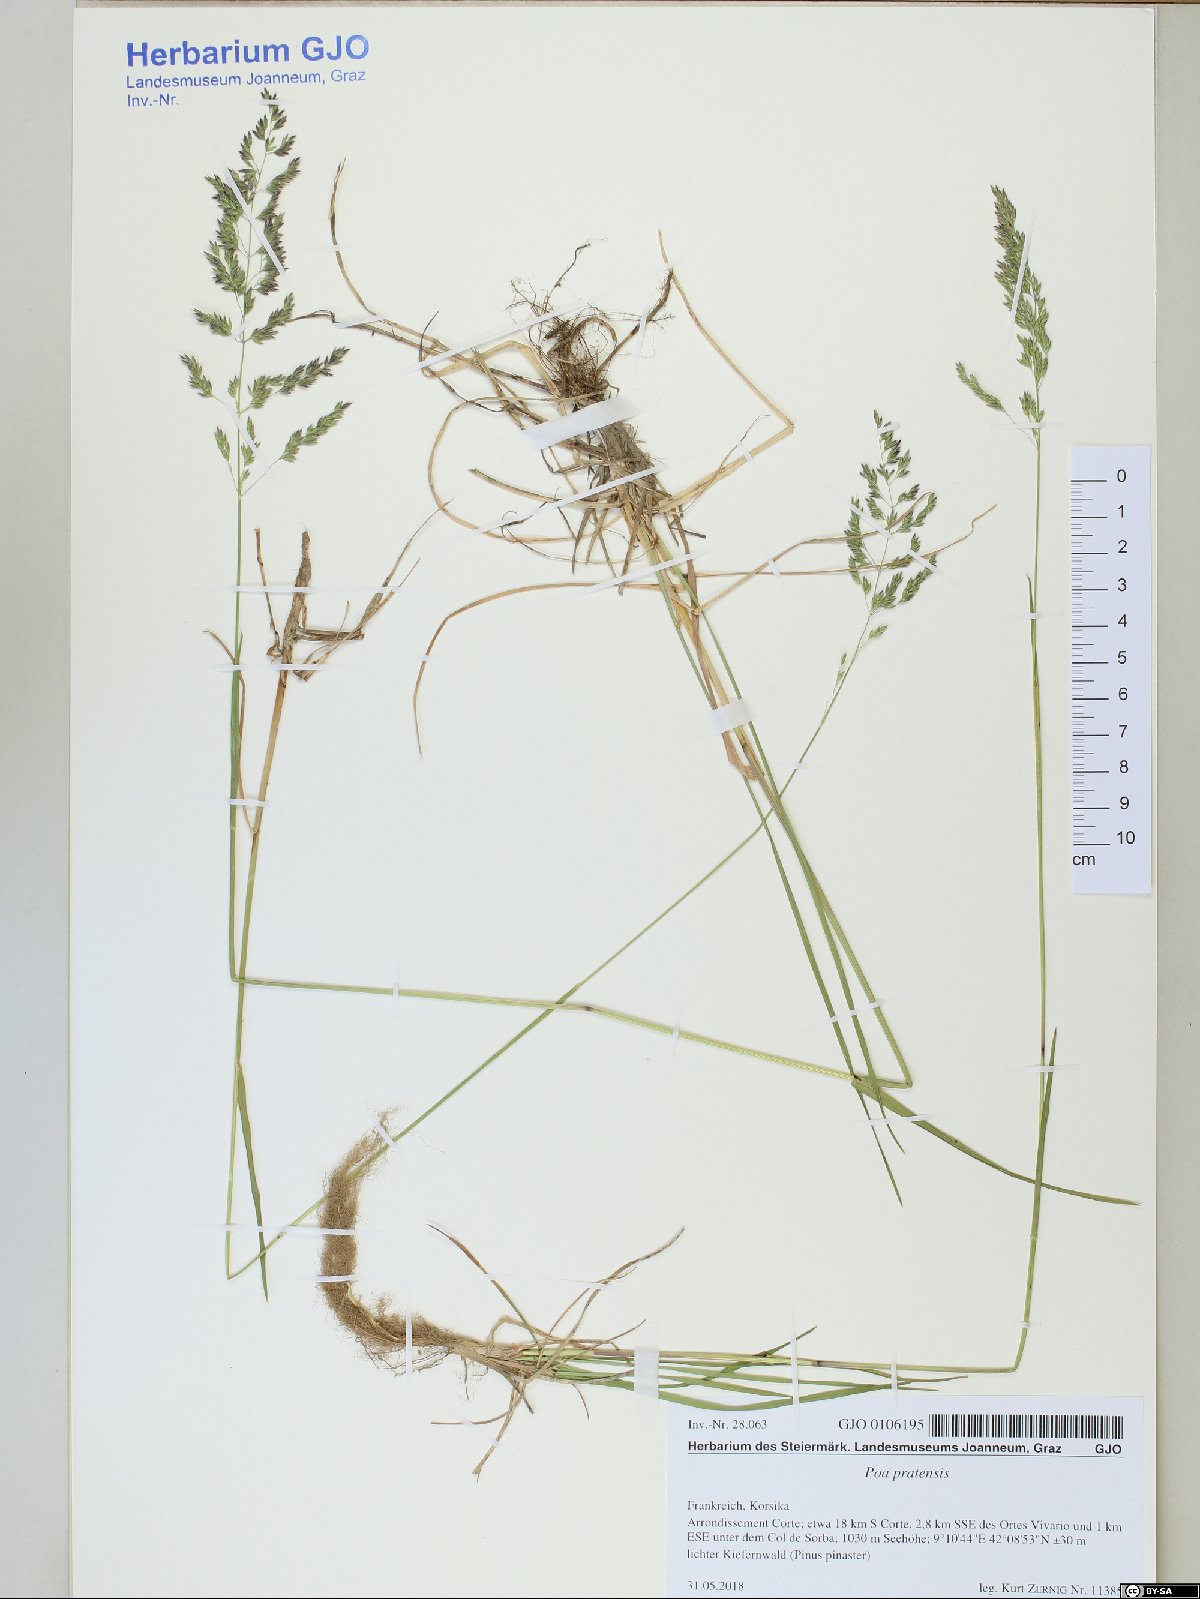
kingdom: Plantae
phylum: Tracheophyta
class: Liliopsida
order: Poales
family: Poaceae
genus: Poa
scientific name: Poa pratensis
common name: Kentucky bluegrass
